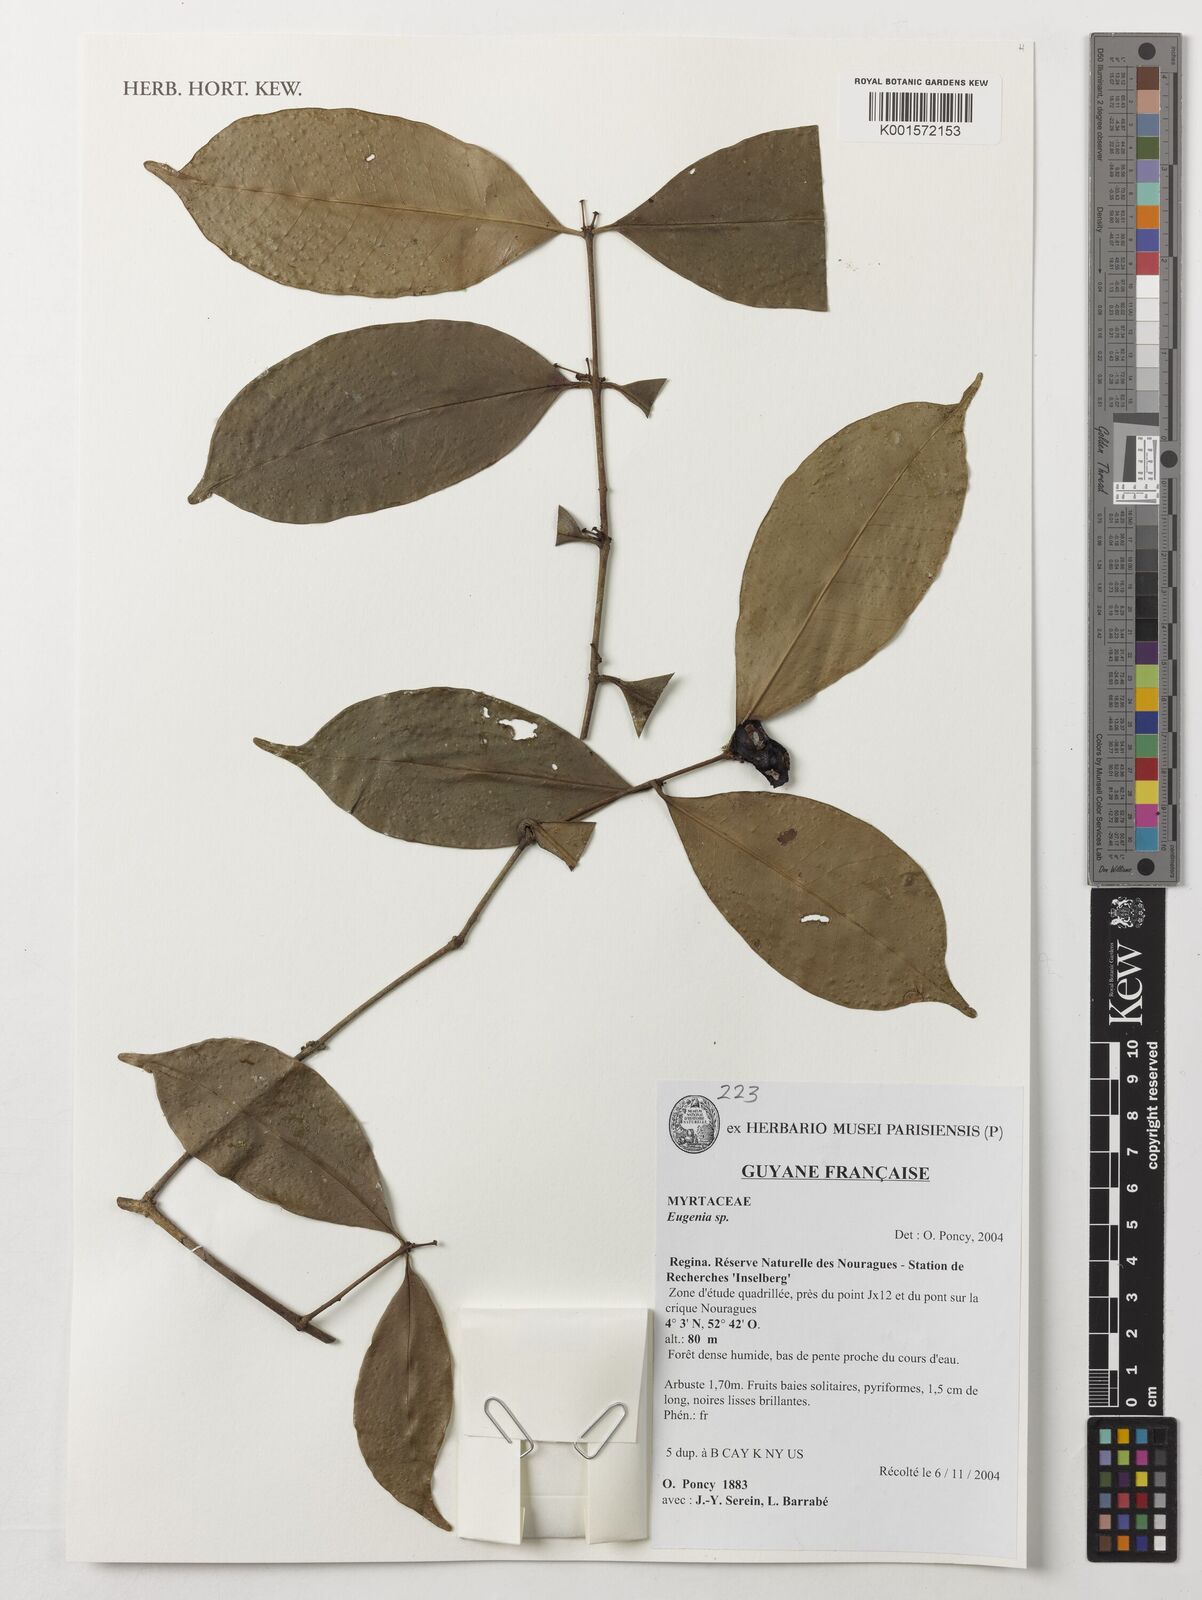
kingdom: Plantae
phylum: Tracheophyta
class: Magnoliopsida
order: Myrtales
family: Myrtaceae
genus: Eugenia
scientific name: Eugenia
